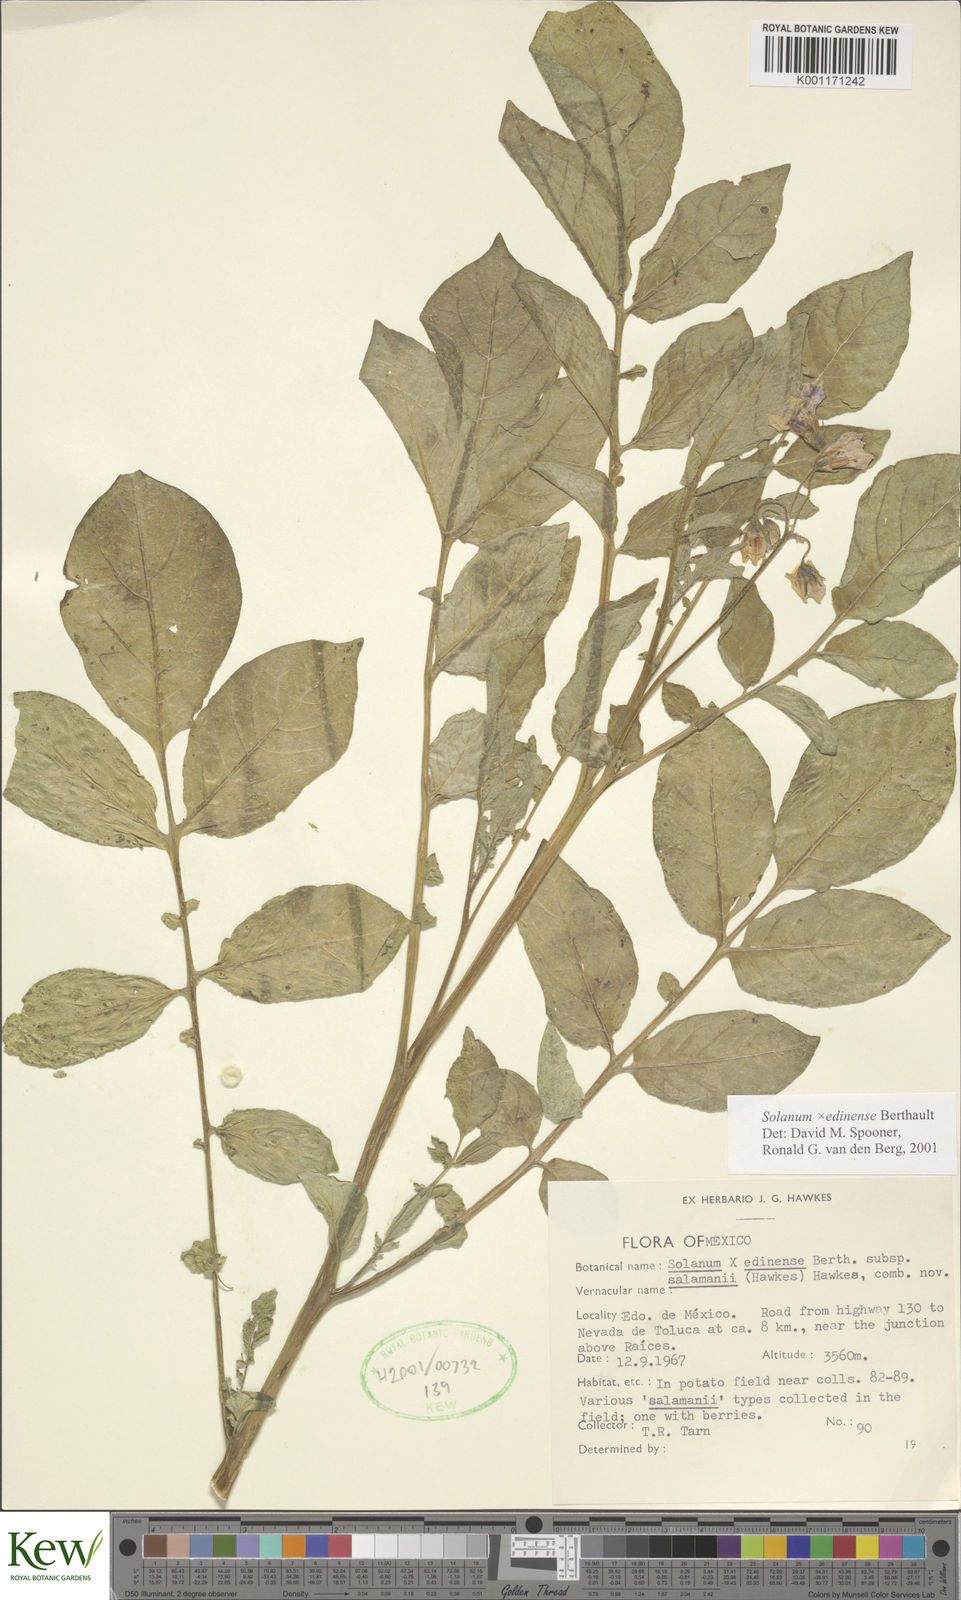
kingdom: Plantae
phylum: Tracheophyta
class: Magnoliopsida
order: Solanales
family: Solanaceae
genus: Solanum
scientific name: Solanum edinense
